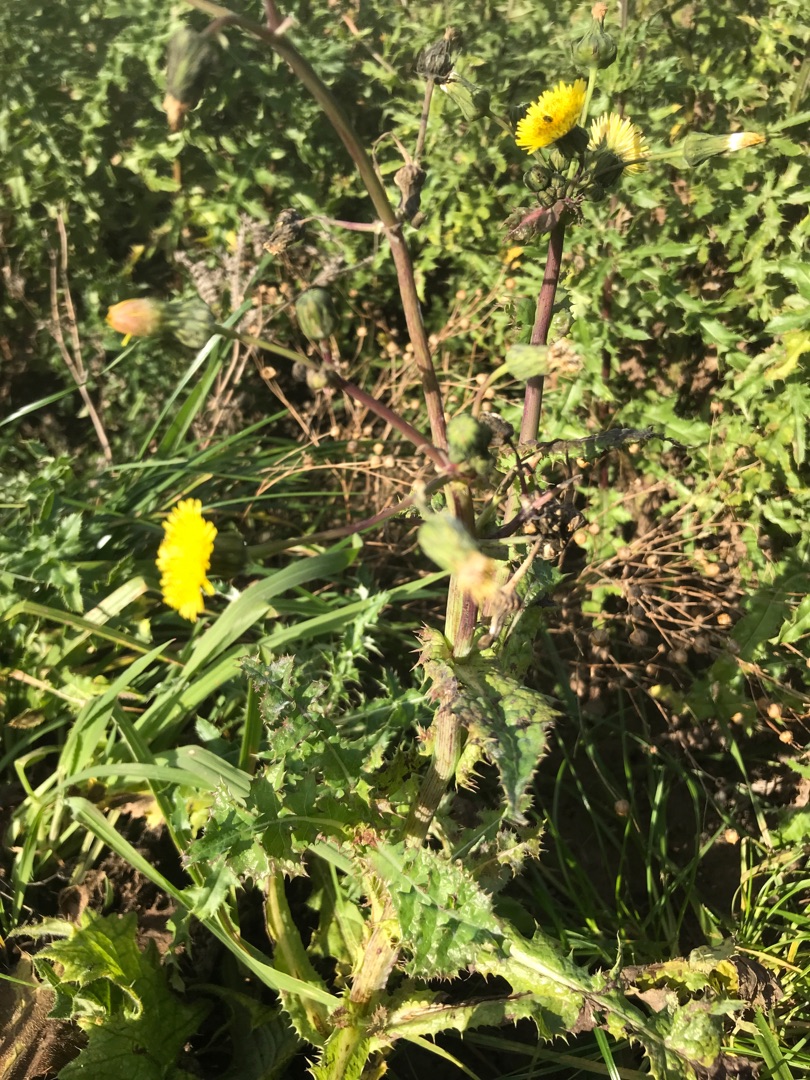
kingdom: Plantae
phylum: Tracheophyta
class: Magnoliopsida
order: Asterales
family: Asteraceae
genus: Sonchus
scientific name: Sonchus asper
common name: Ru svinemælk
